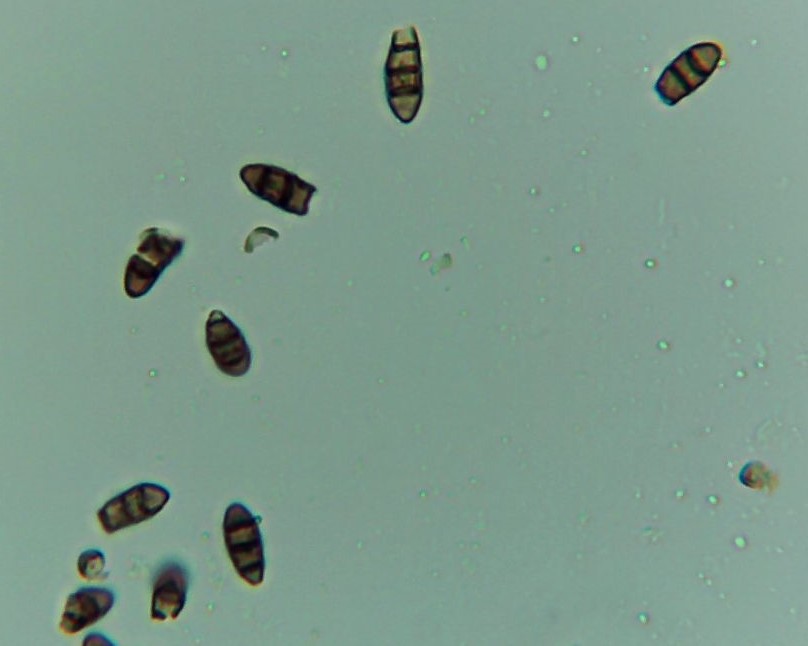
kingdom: Fungi
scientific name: Fungi
